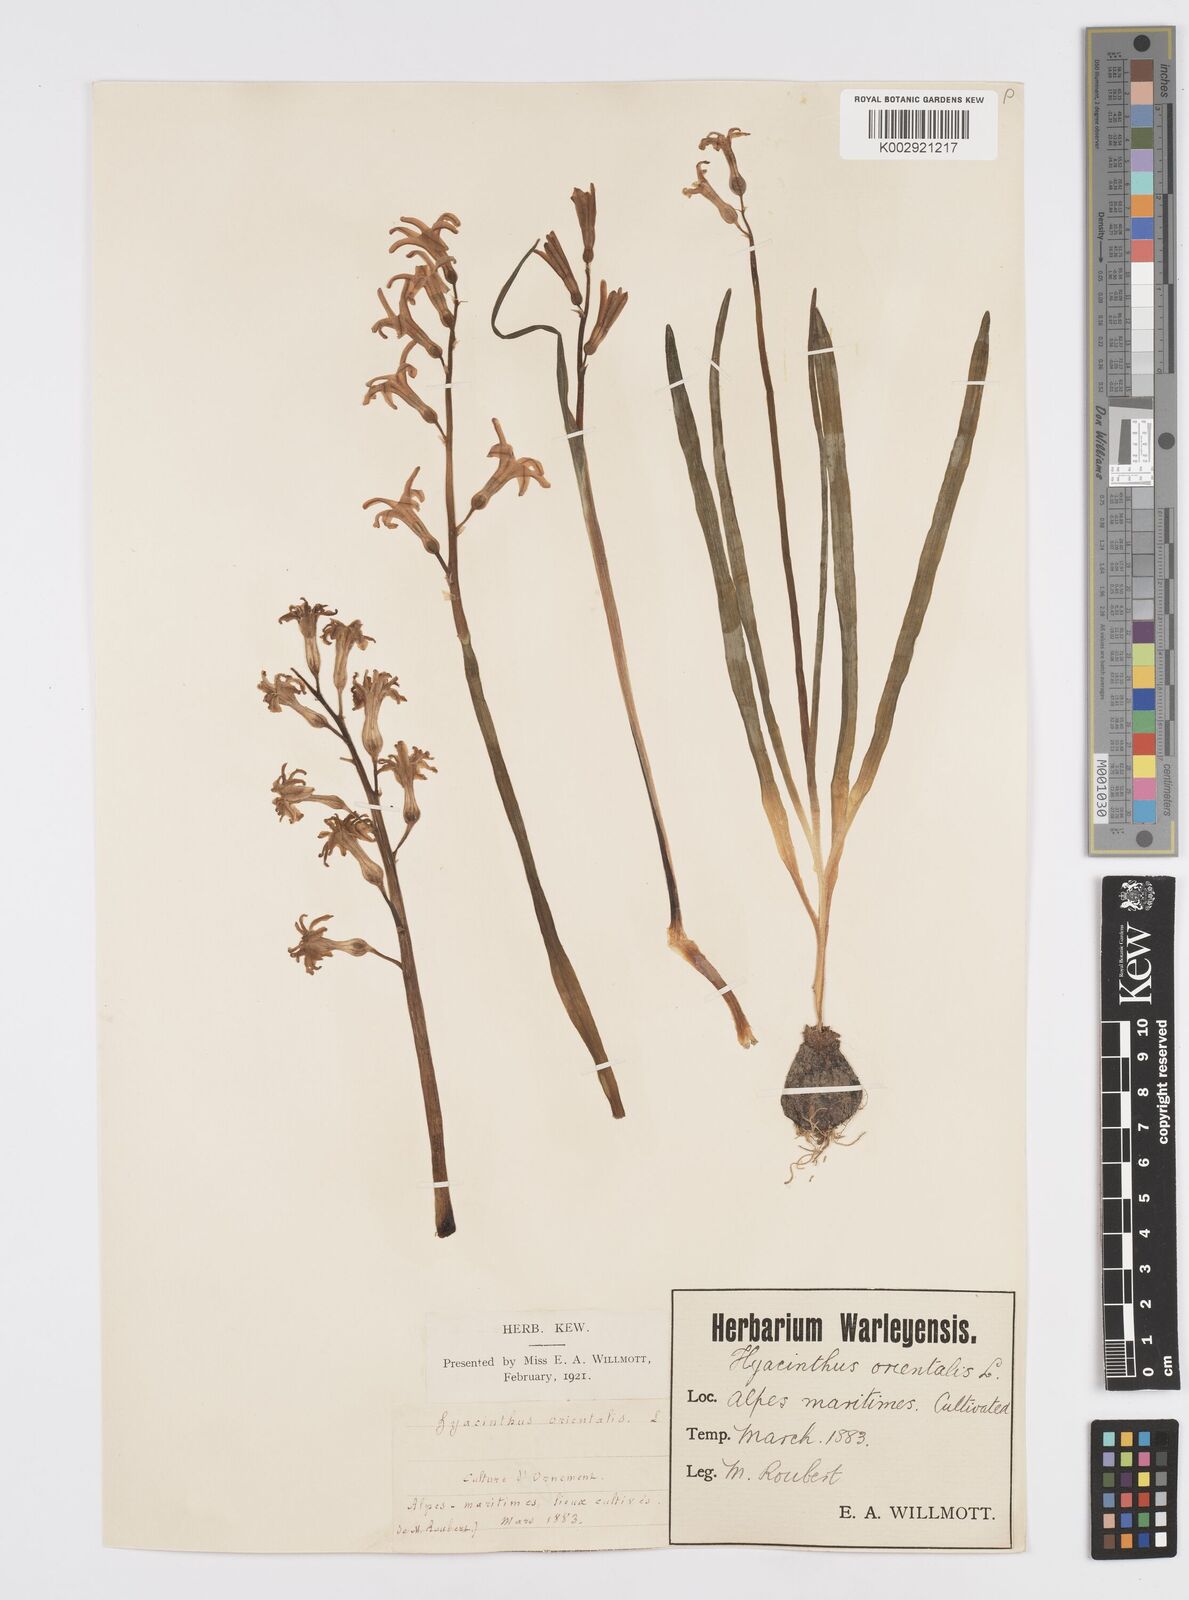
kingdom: Plantae
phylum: Tracheophyta
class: Liliopsida
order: Asparagales
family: Asparagaceae
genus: Hyacinthus
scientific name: Hyacinthus orientalis
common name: Hyacinth
